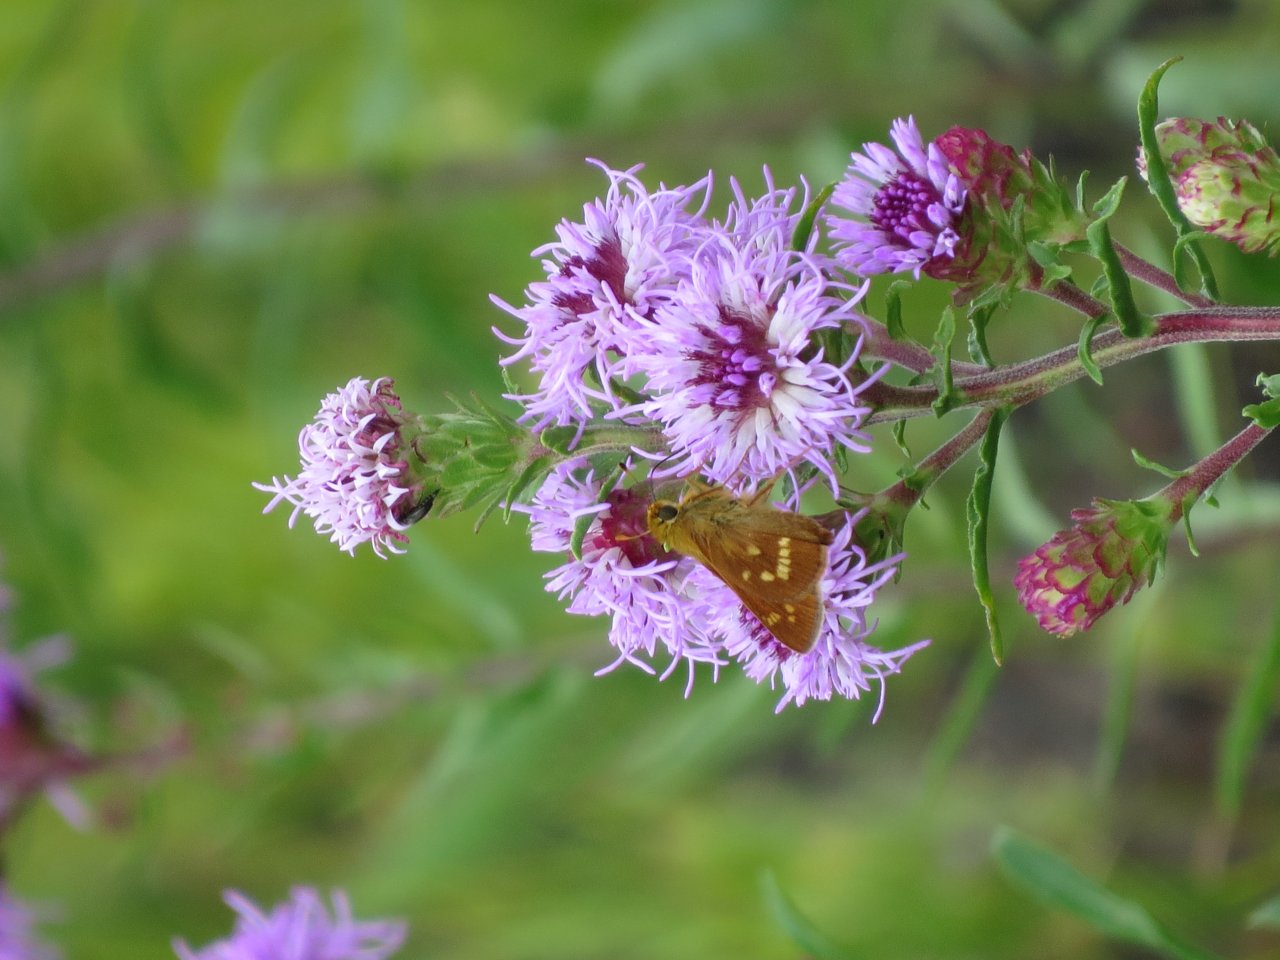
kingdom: Animalia
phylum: Arthropoda
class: Insecta
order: Lepidoptera
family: Hesperiidae
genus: Hesperia
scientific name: Hesperia leonardus
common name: Leonard's Skipper
